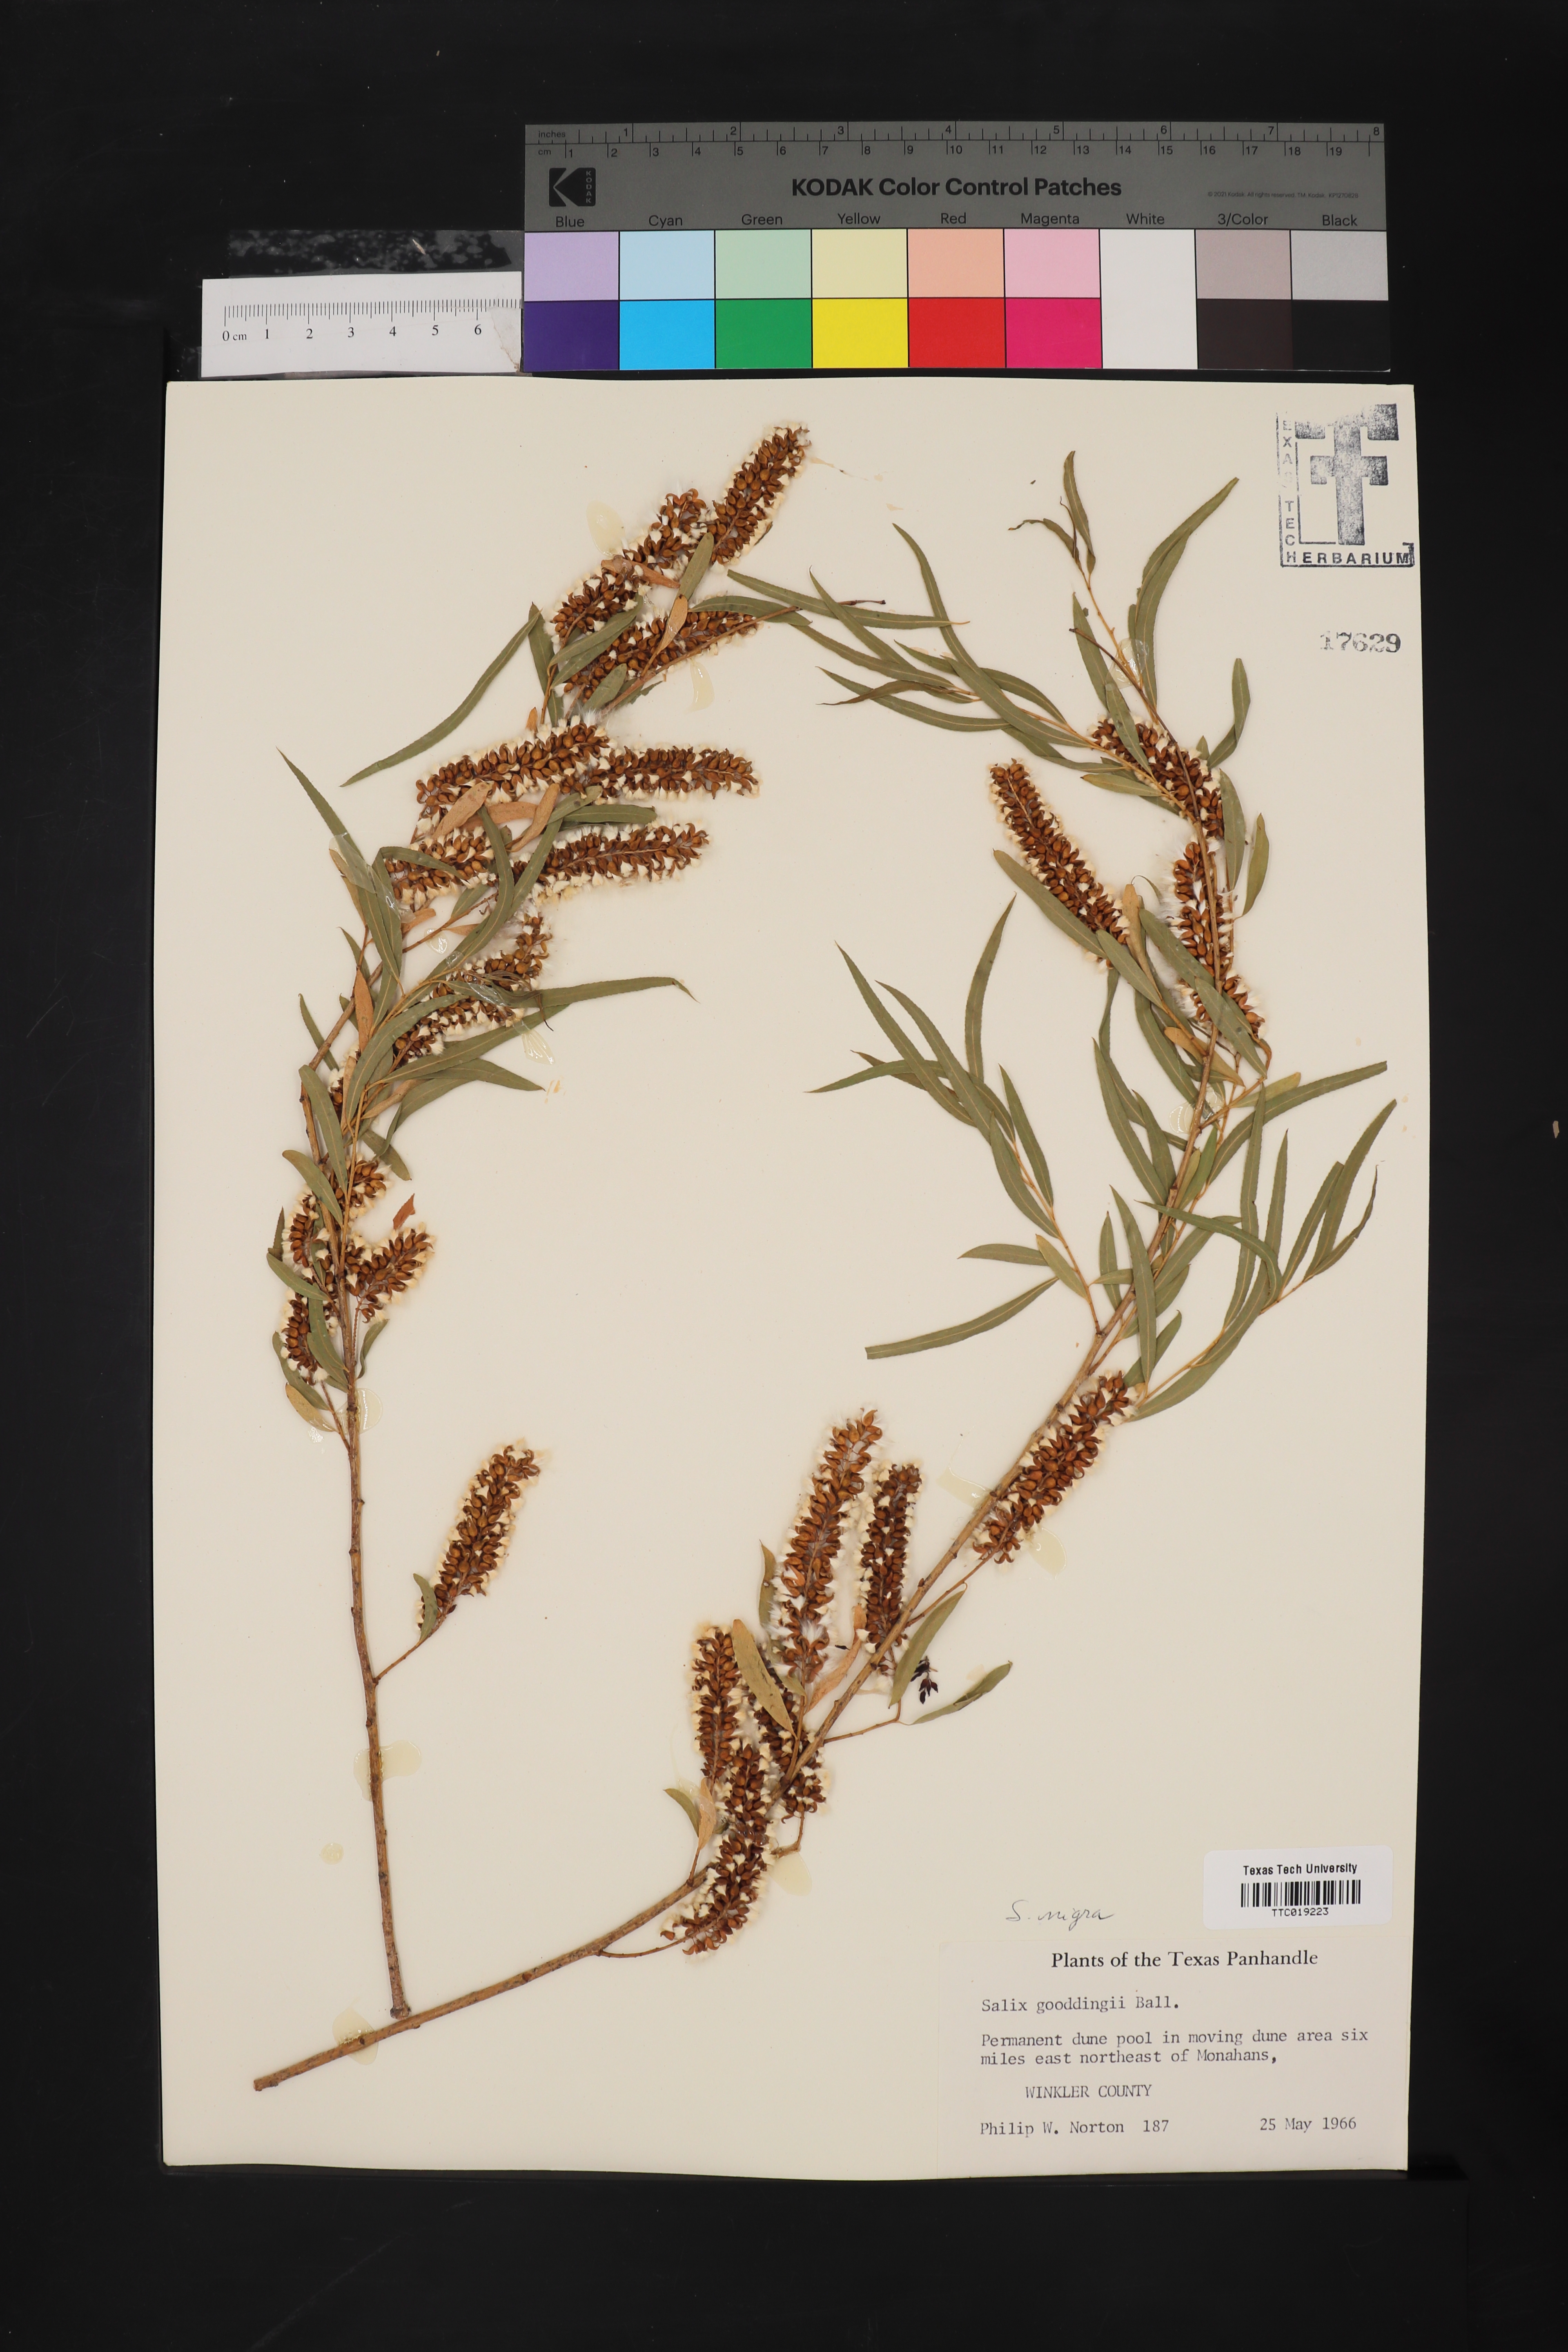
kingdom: Plantae
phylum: Tracheophyta
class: Magnoliopsida
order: Malpighiales
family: Salicaceae
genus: Salix
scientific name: Salix nigra
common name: Black willow
